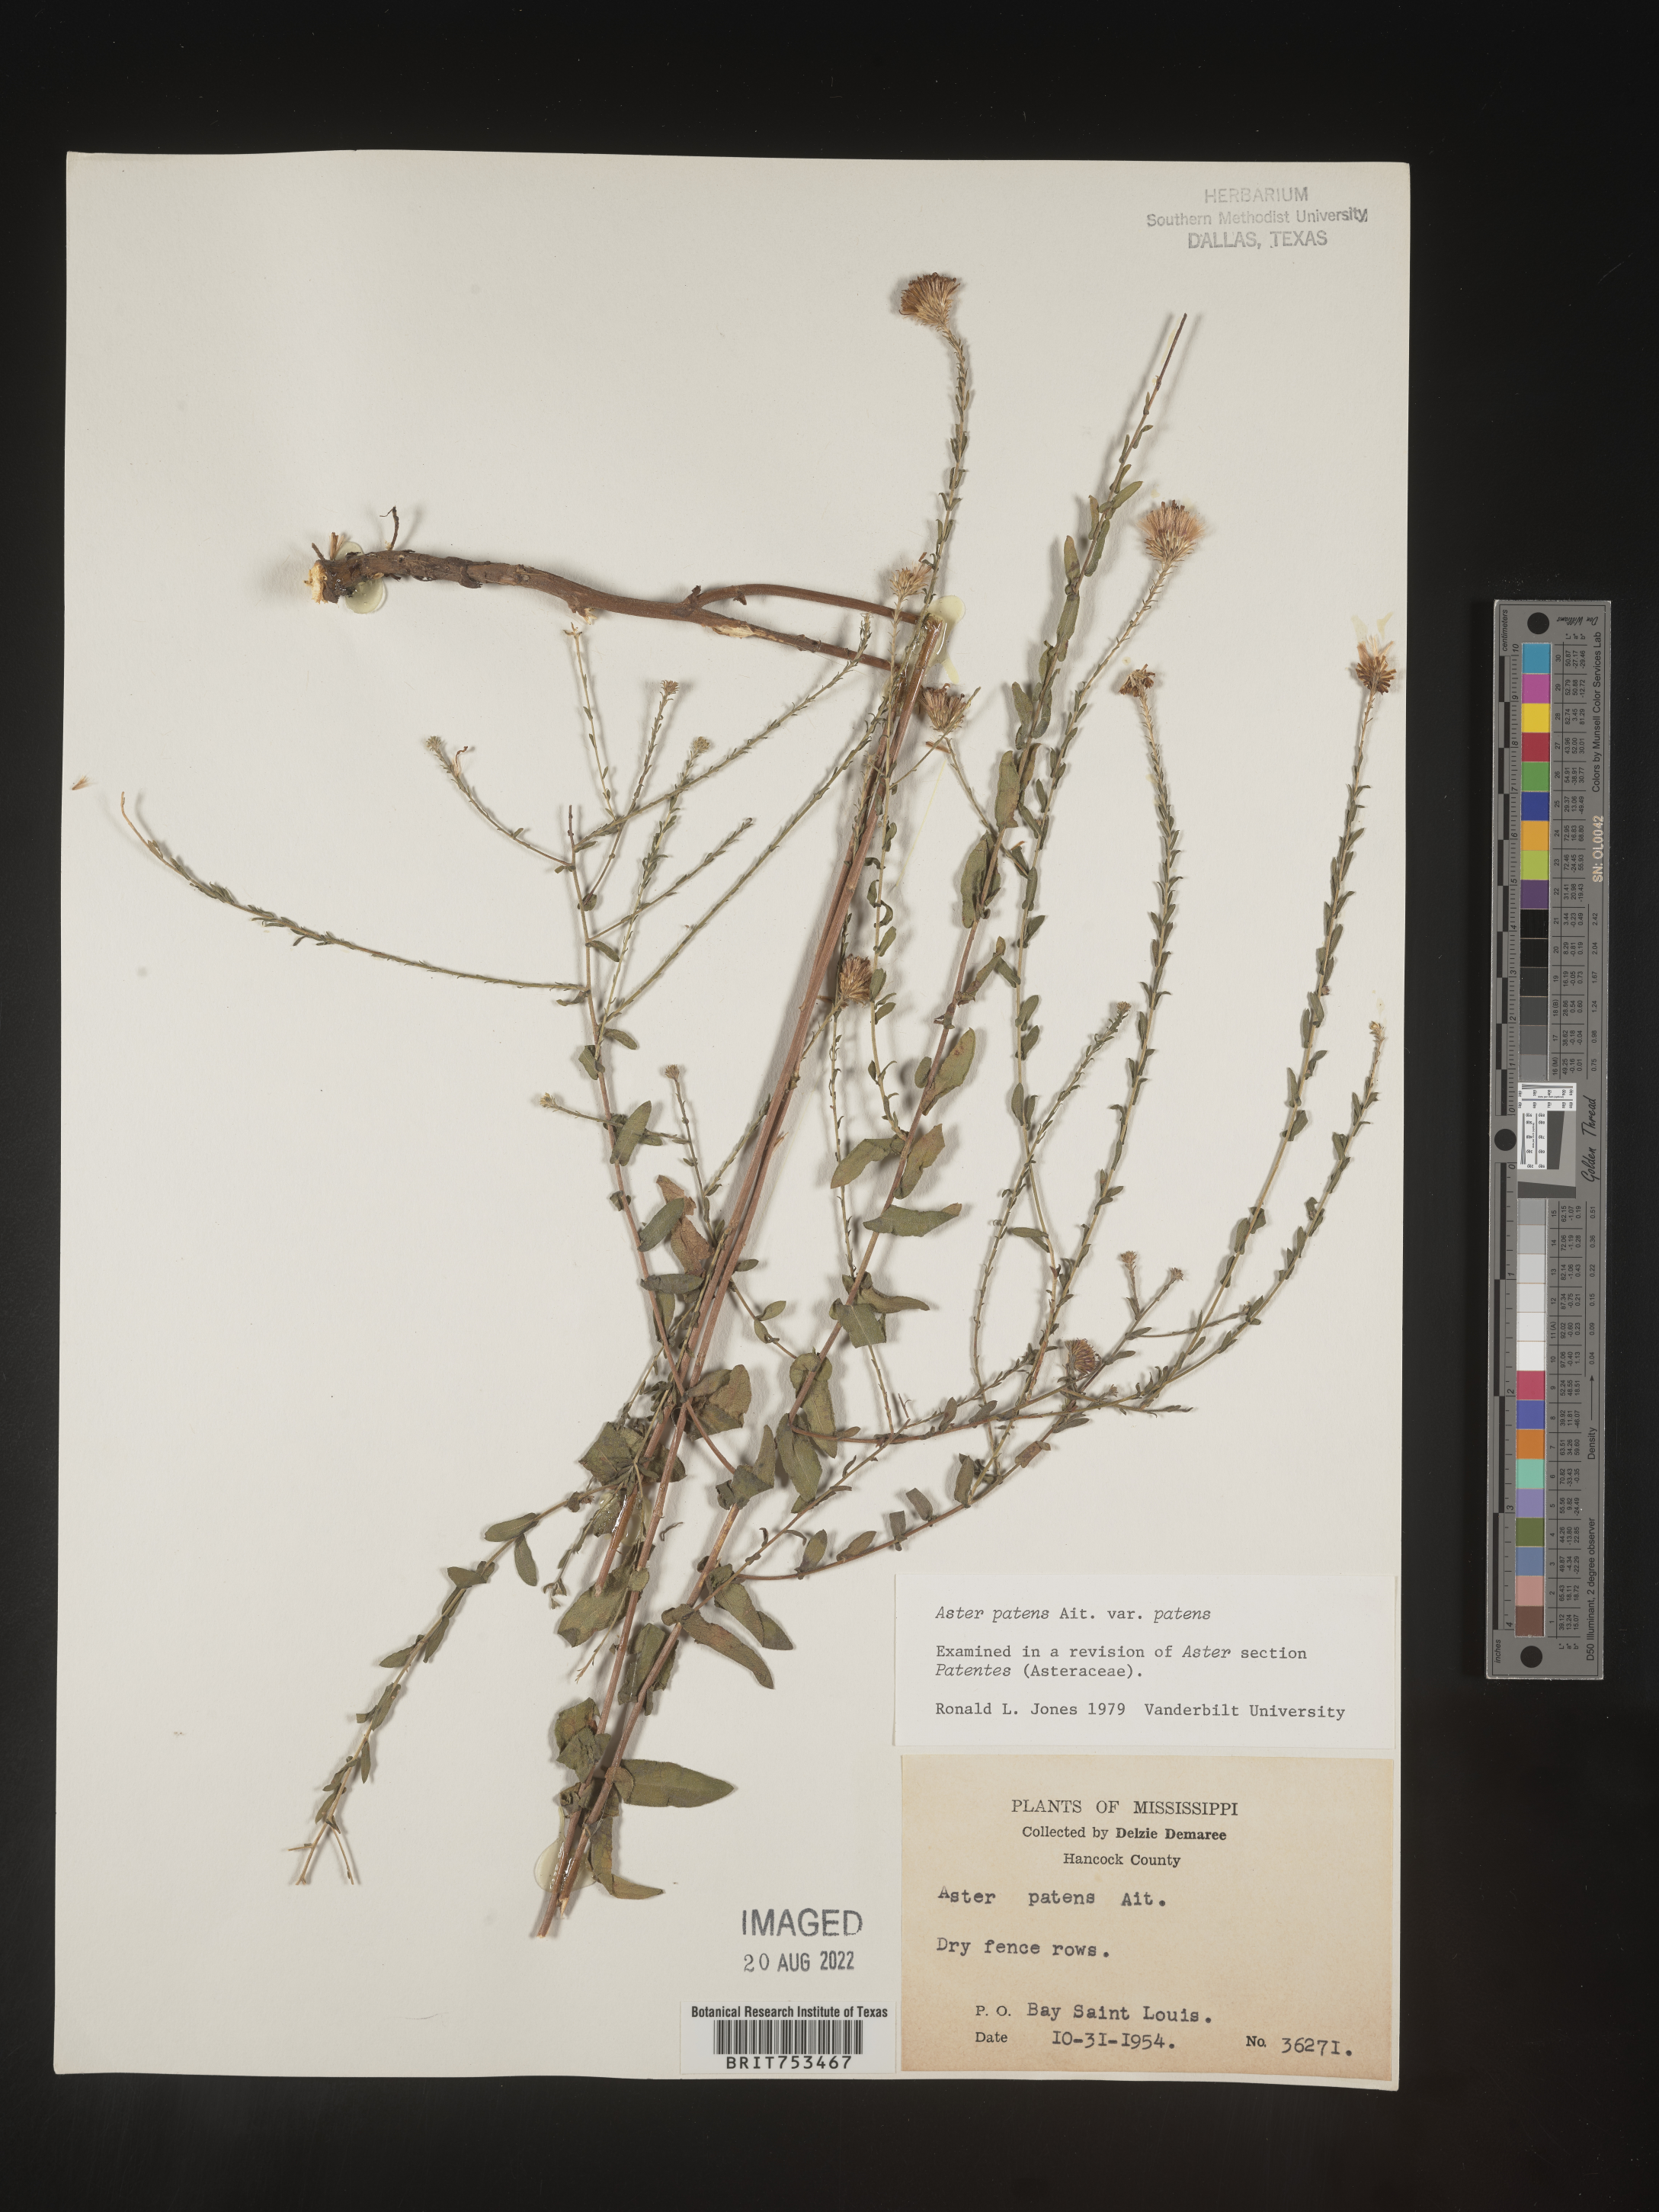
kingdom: Plantae
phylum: Tracheophyta
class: Magnoliopsida
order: Asterales
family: Asteraceae
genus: Symphyotrichum
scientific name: Symphyotrichum patens
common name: Late purple aster
